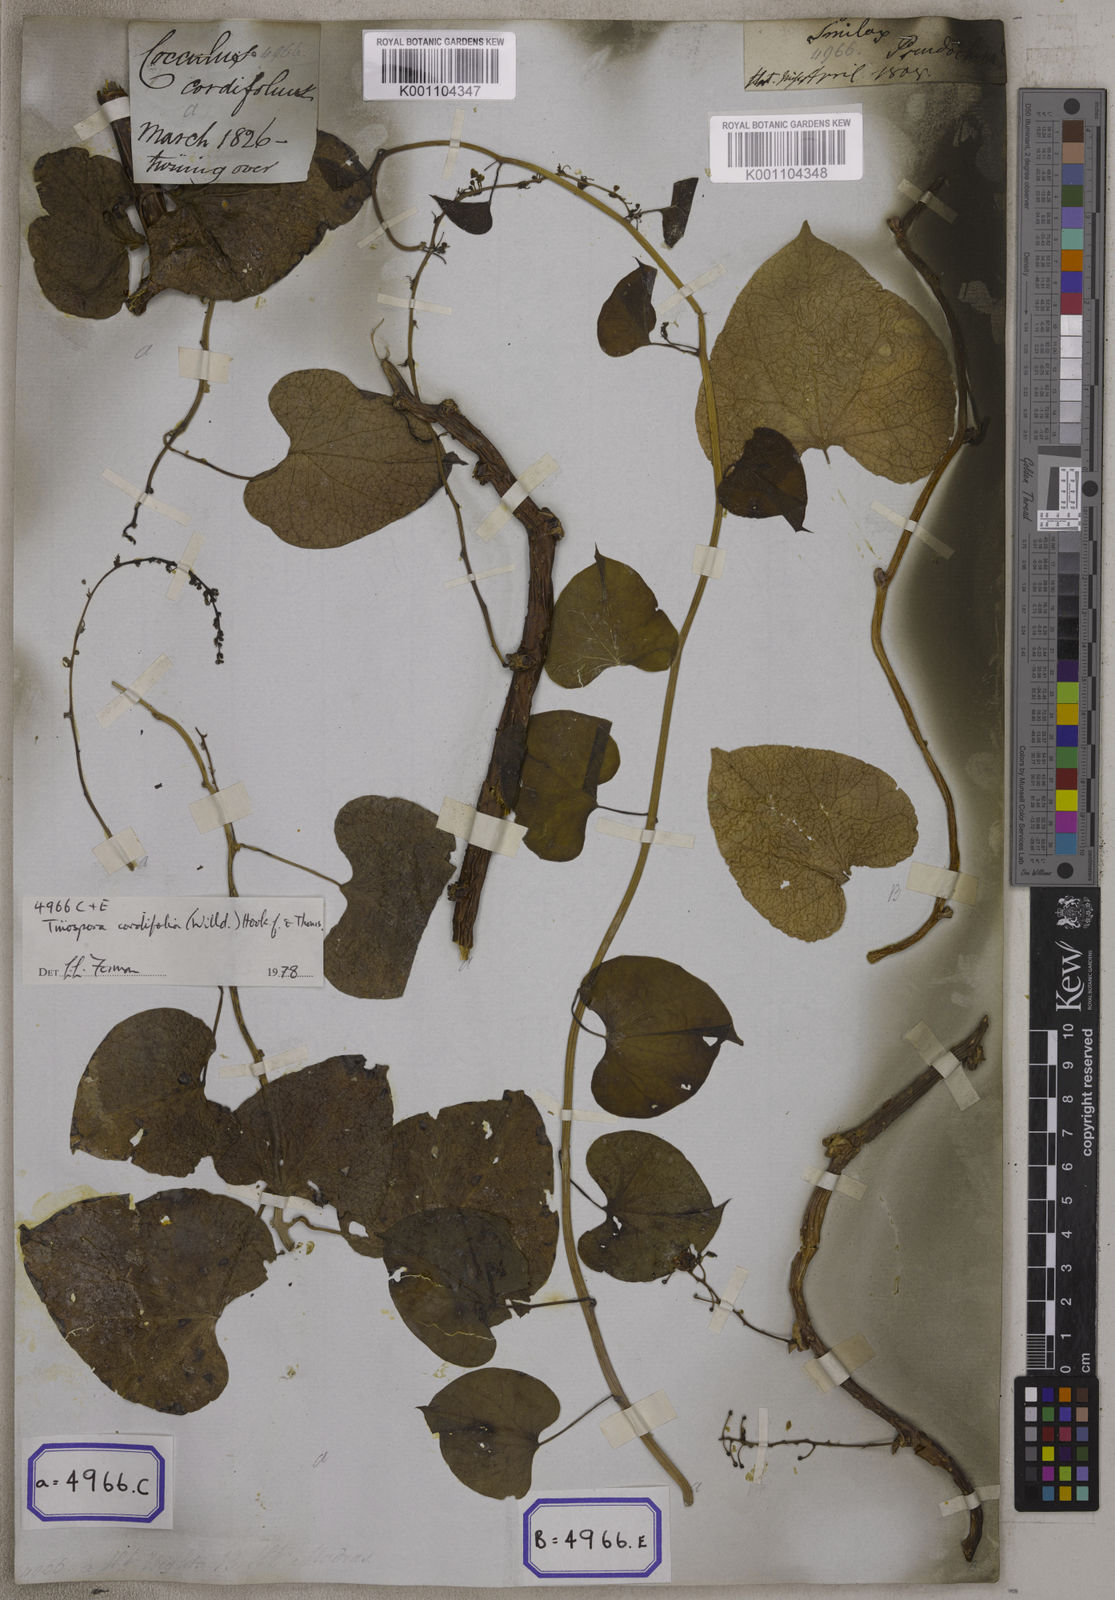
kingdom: Plantae
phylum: Tracheophyta
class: Magnoliopsida
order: Ranunculales
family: Menispermaceae
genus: Tinospora
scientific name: Tinospora crispa
